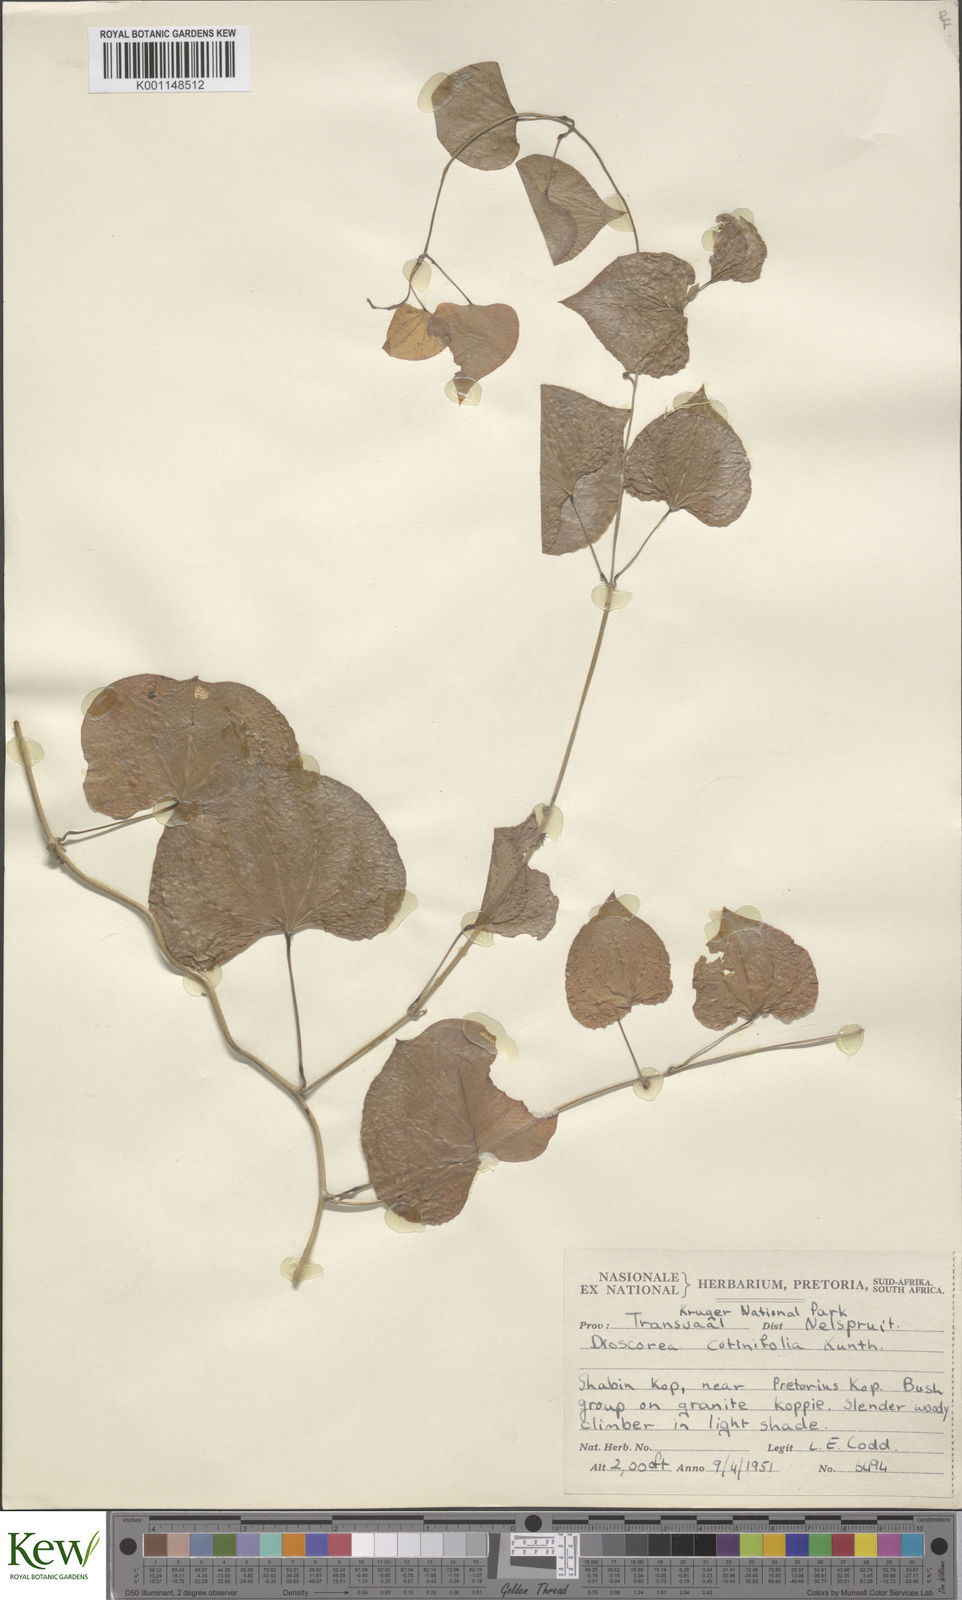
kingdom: Plantae
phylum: Tracheophyta
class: Liliopsida
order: Dioscoreales
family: Dioscoreaceae
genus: Dioscorea
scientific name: Dioscorea cotinifolia
